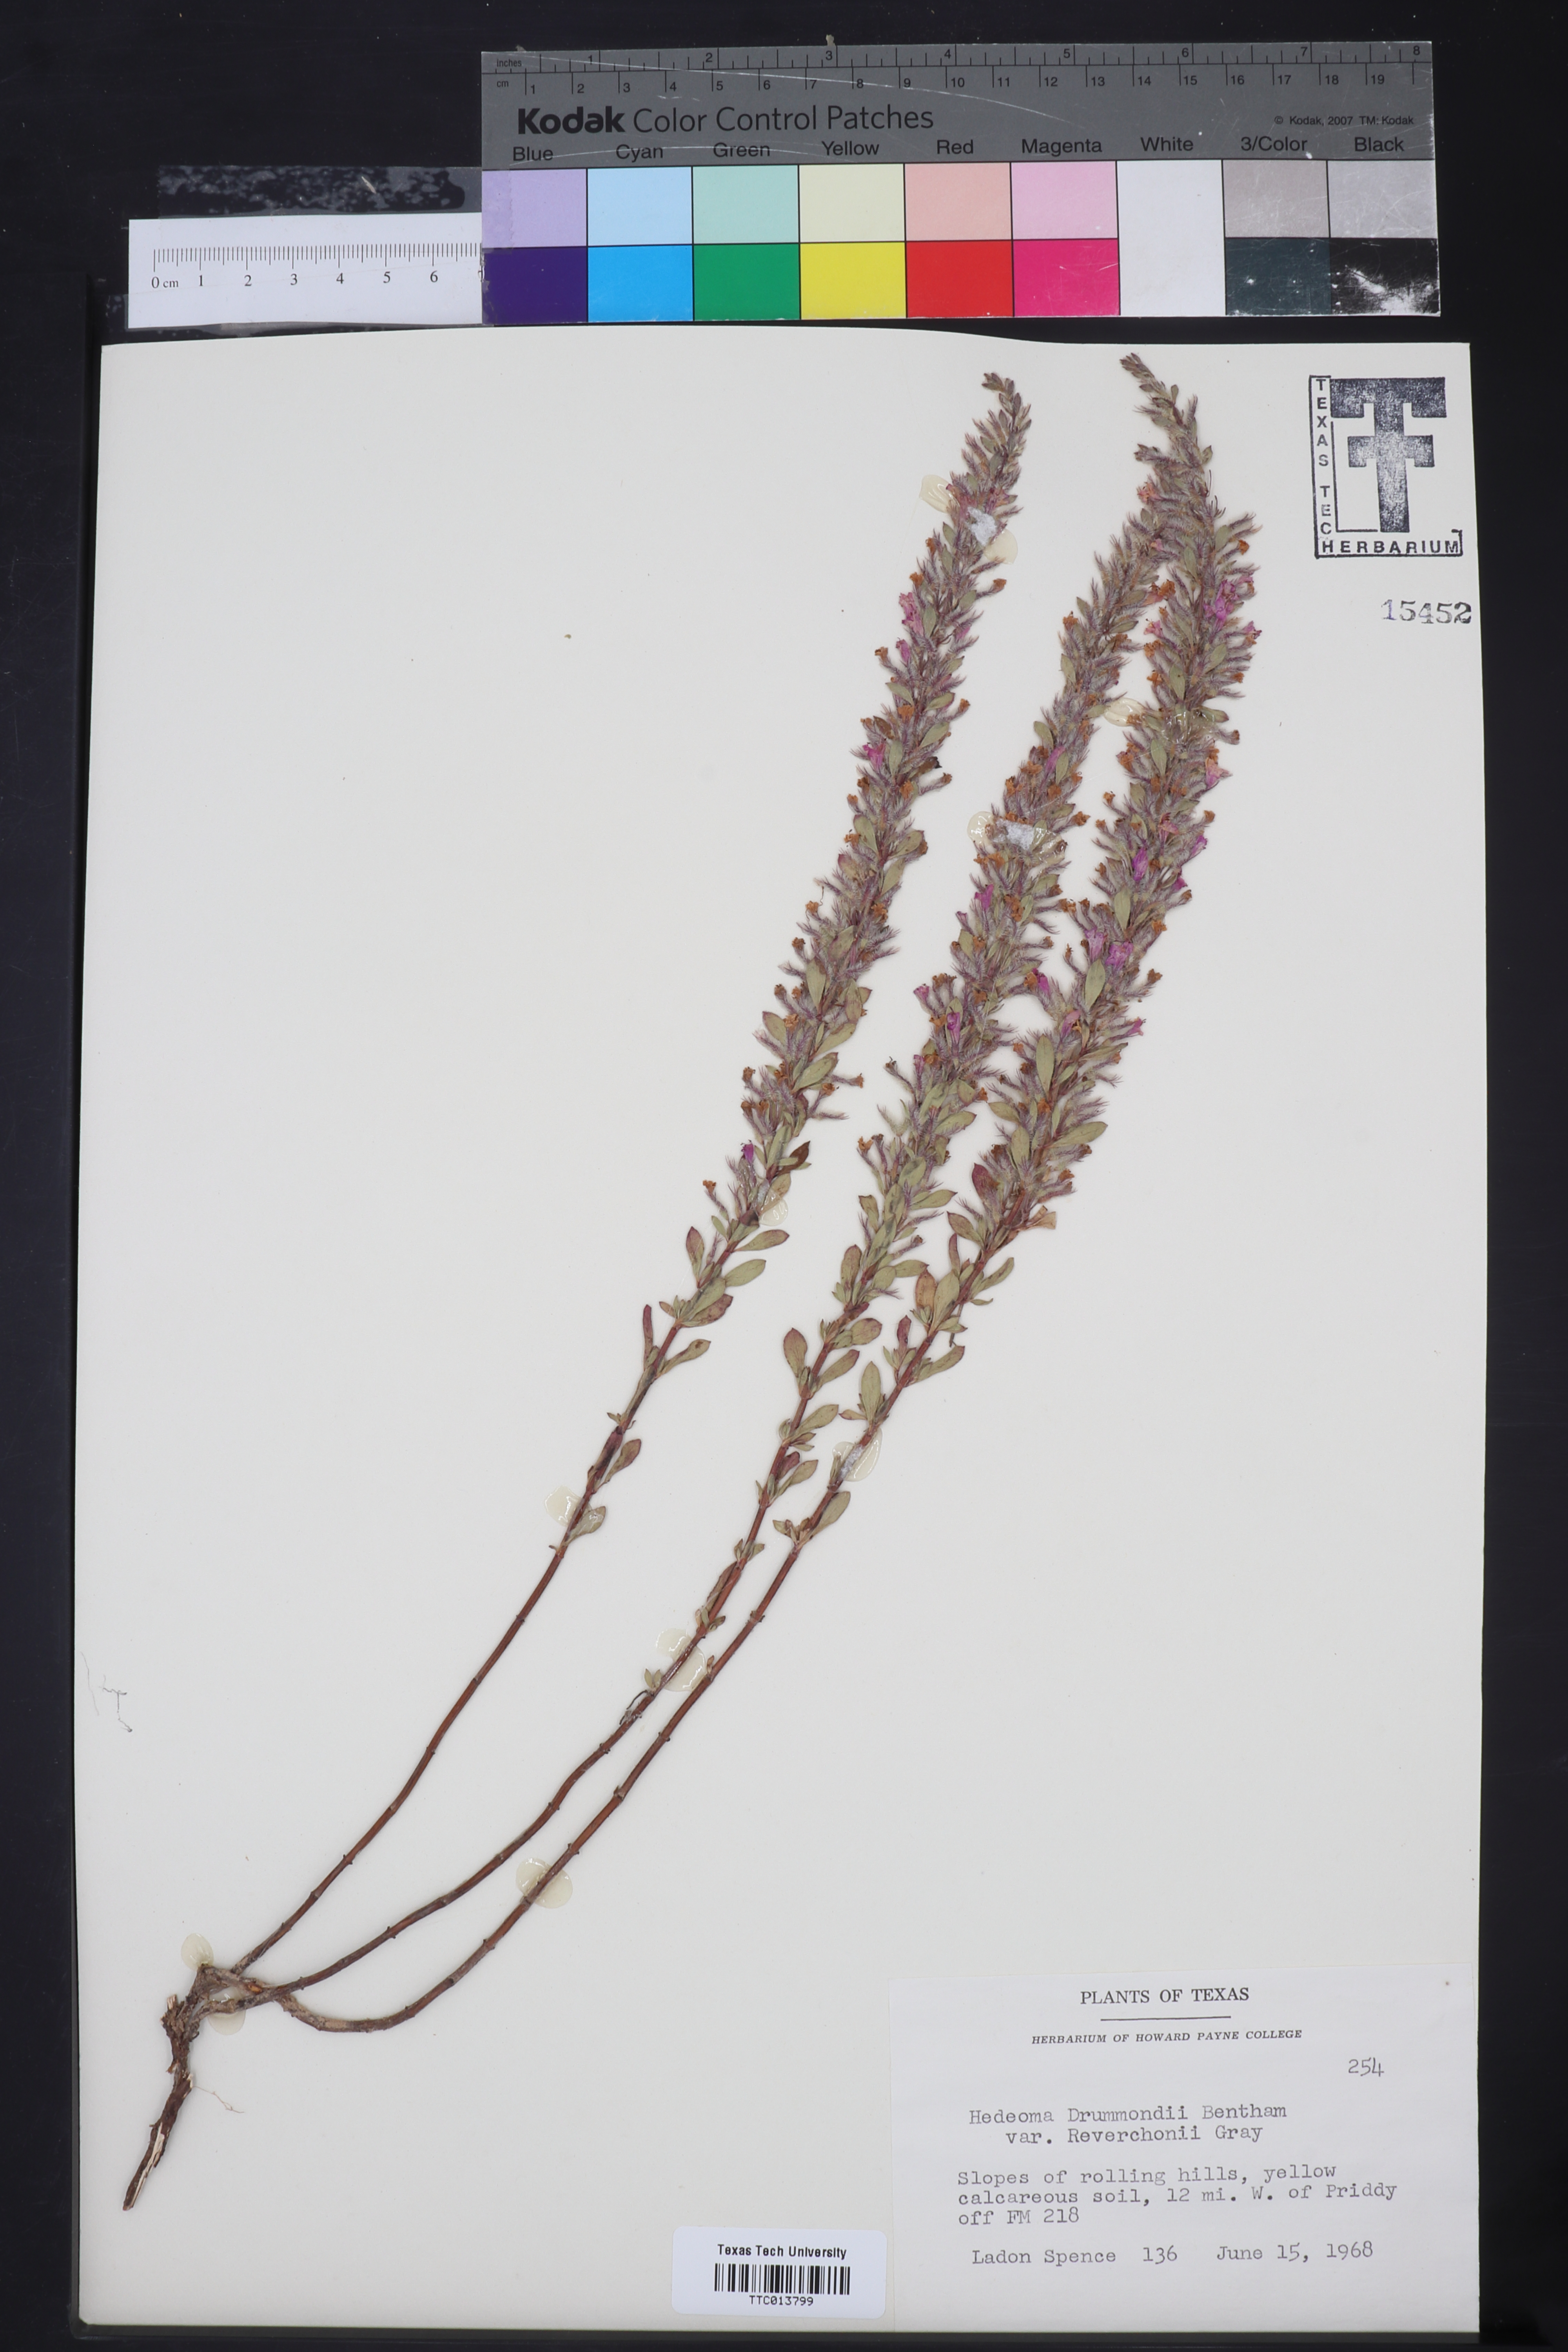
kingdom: Plantae
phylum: Tracheophyta
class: Magnoliopsida
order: Lamiales
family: Lamiaceae
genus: Hedeoma
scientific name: Hedeoma reverchonii
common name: Reverchon's false penny-royal
